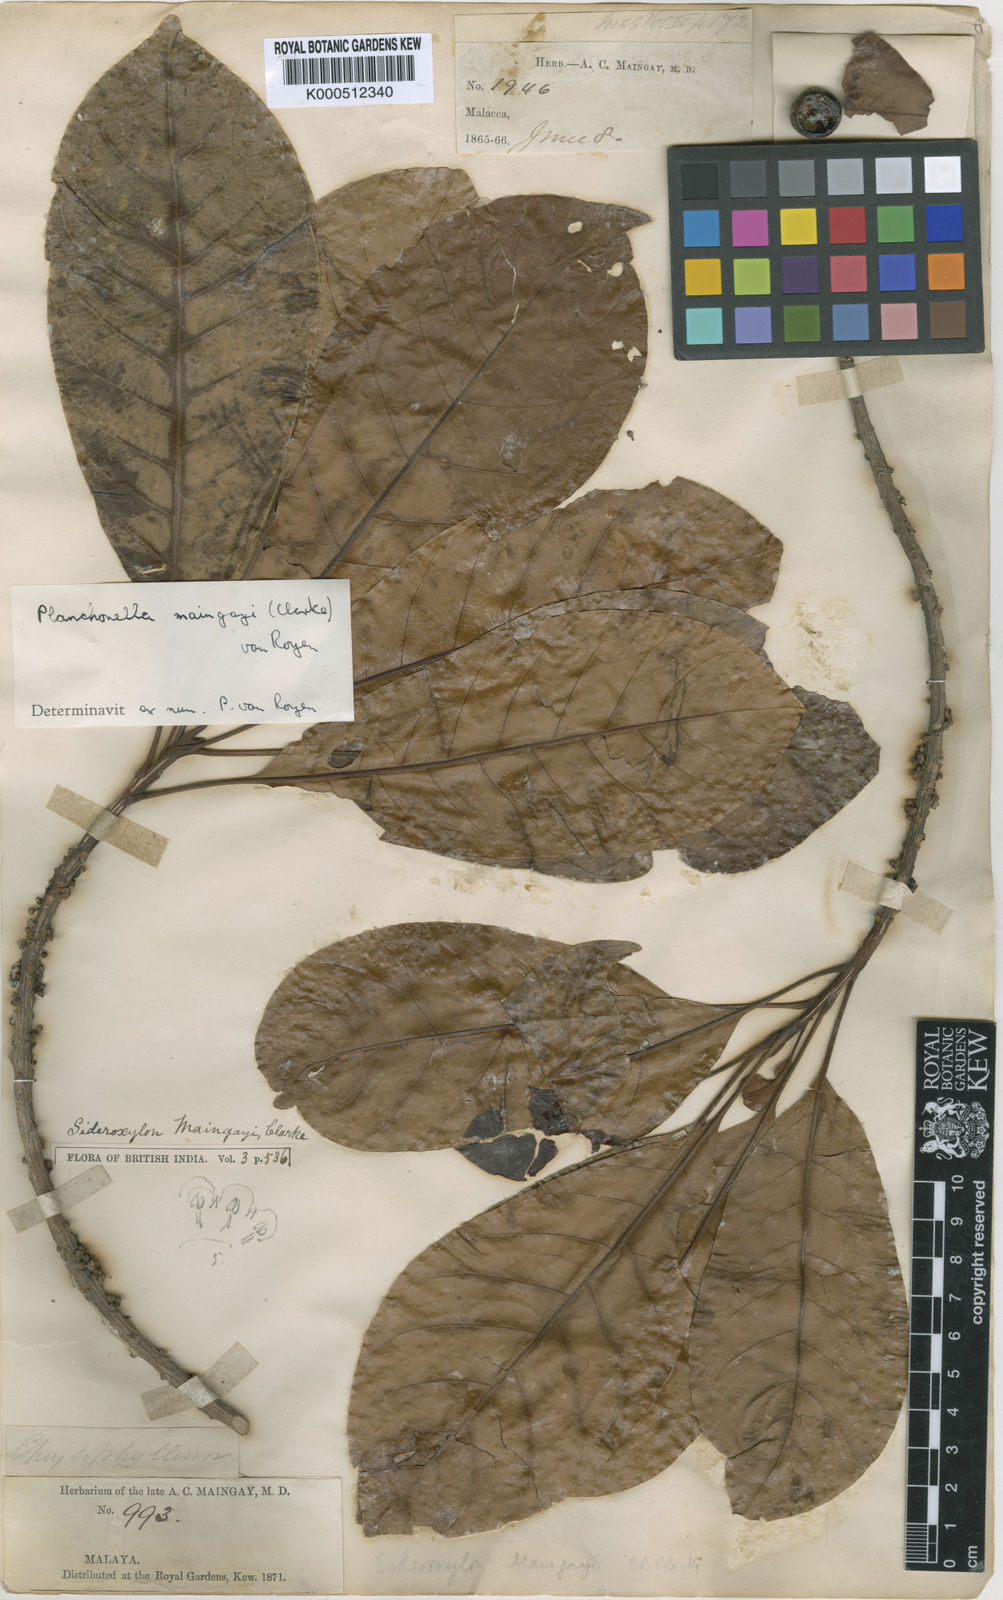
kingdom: Plantae
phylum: Tracheophyta
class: Magnoliopsida
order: Ericales
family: Sapotaceae
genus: Planchonella
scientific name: Planchonella maingayi
